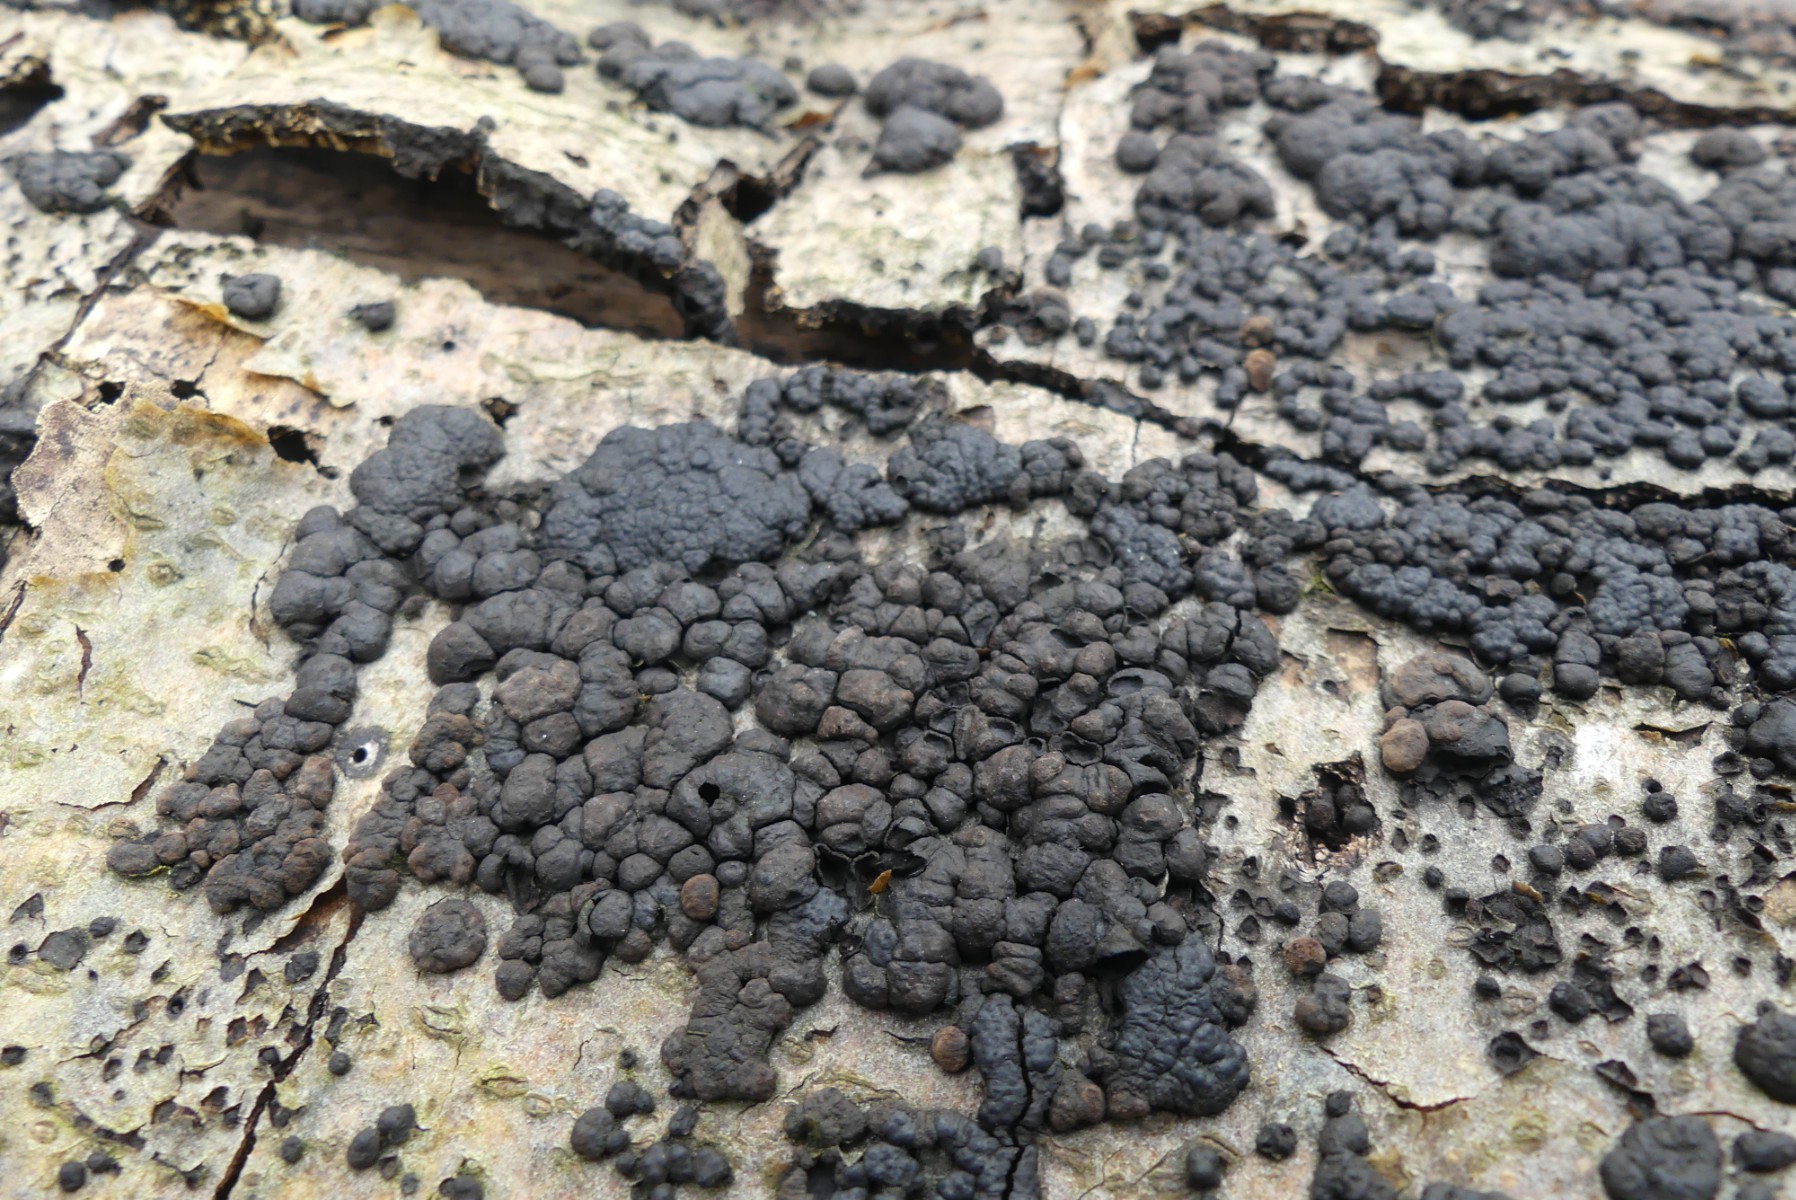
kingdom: Fungi
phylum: Ascomycota
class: Sordariomycetes
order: Xylariales
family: Hypoxylaceae
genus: Jackrogersella
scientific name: Jackrogersella cohaerens
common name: sammenflydende kulbær
